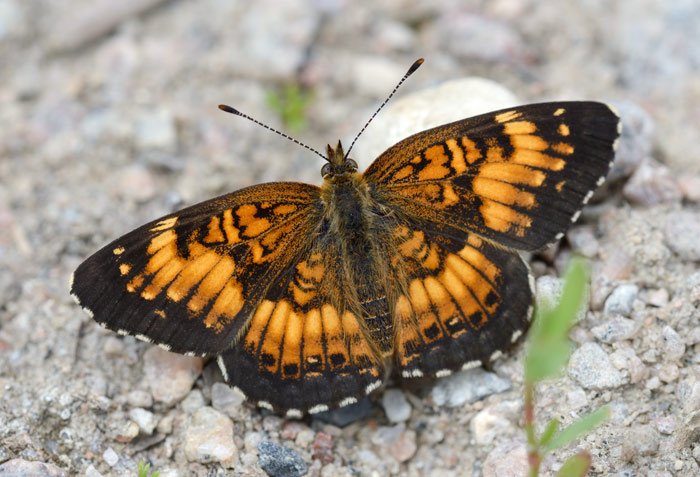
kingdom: Animalia
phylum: Arthropoda
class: Insecta
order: Lepidoptera
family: Nymphalidae
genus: Chlosyne
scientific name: Chlosyne harrisii
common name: Harris's Checkerspot
